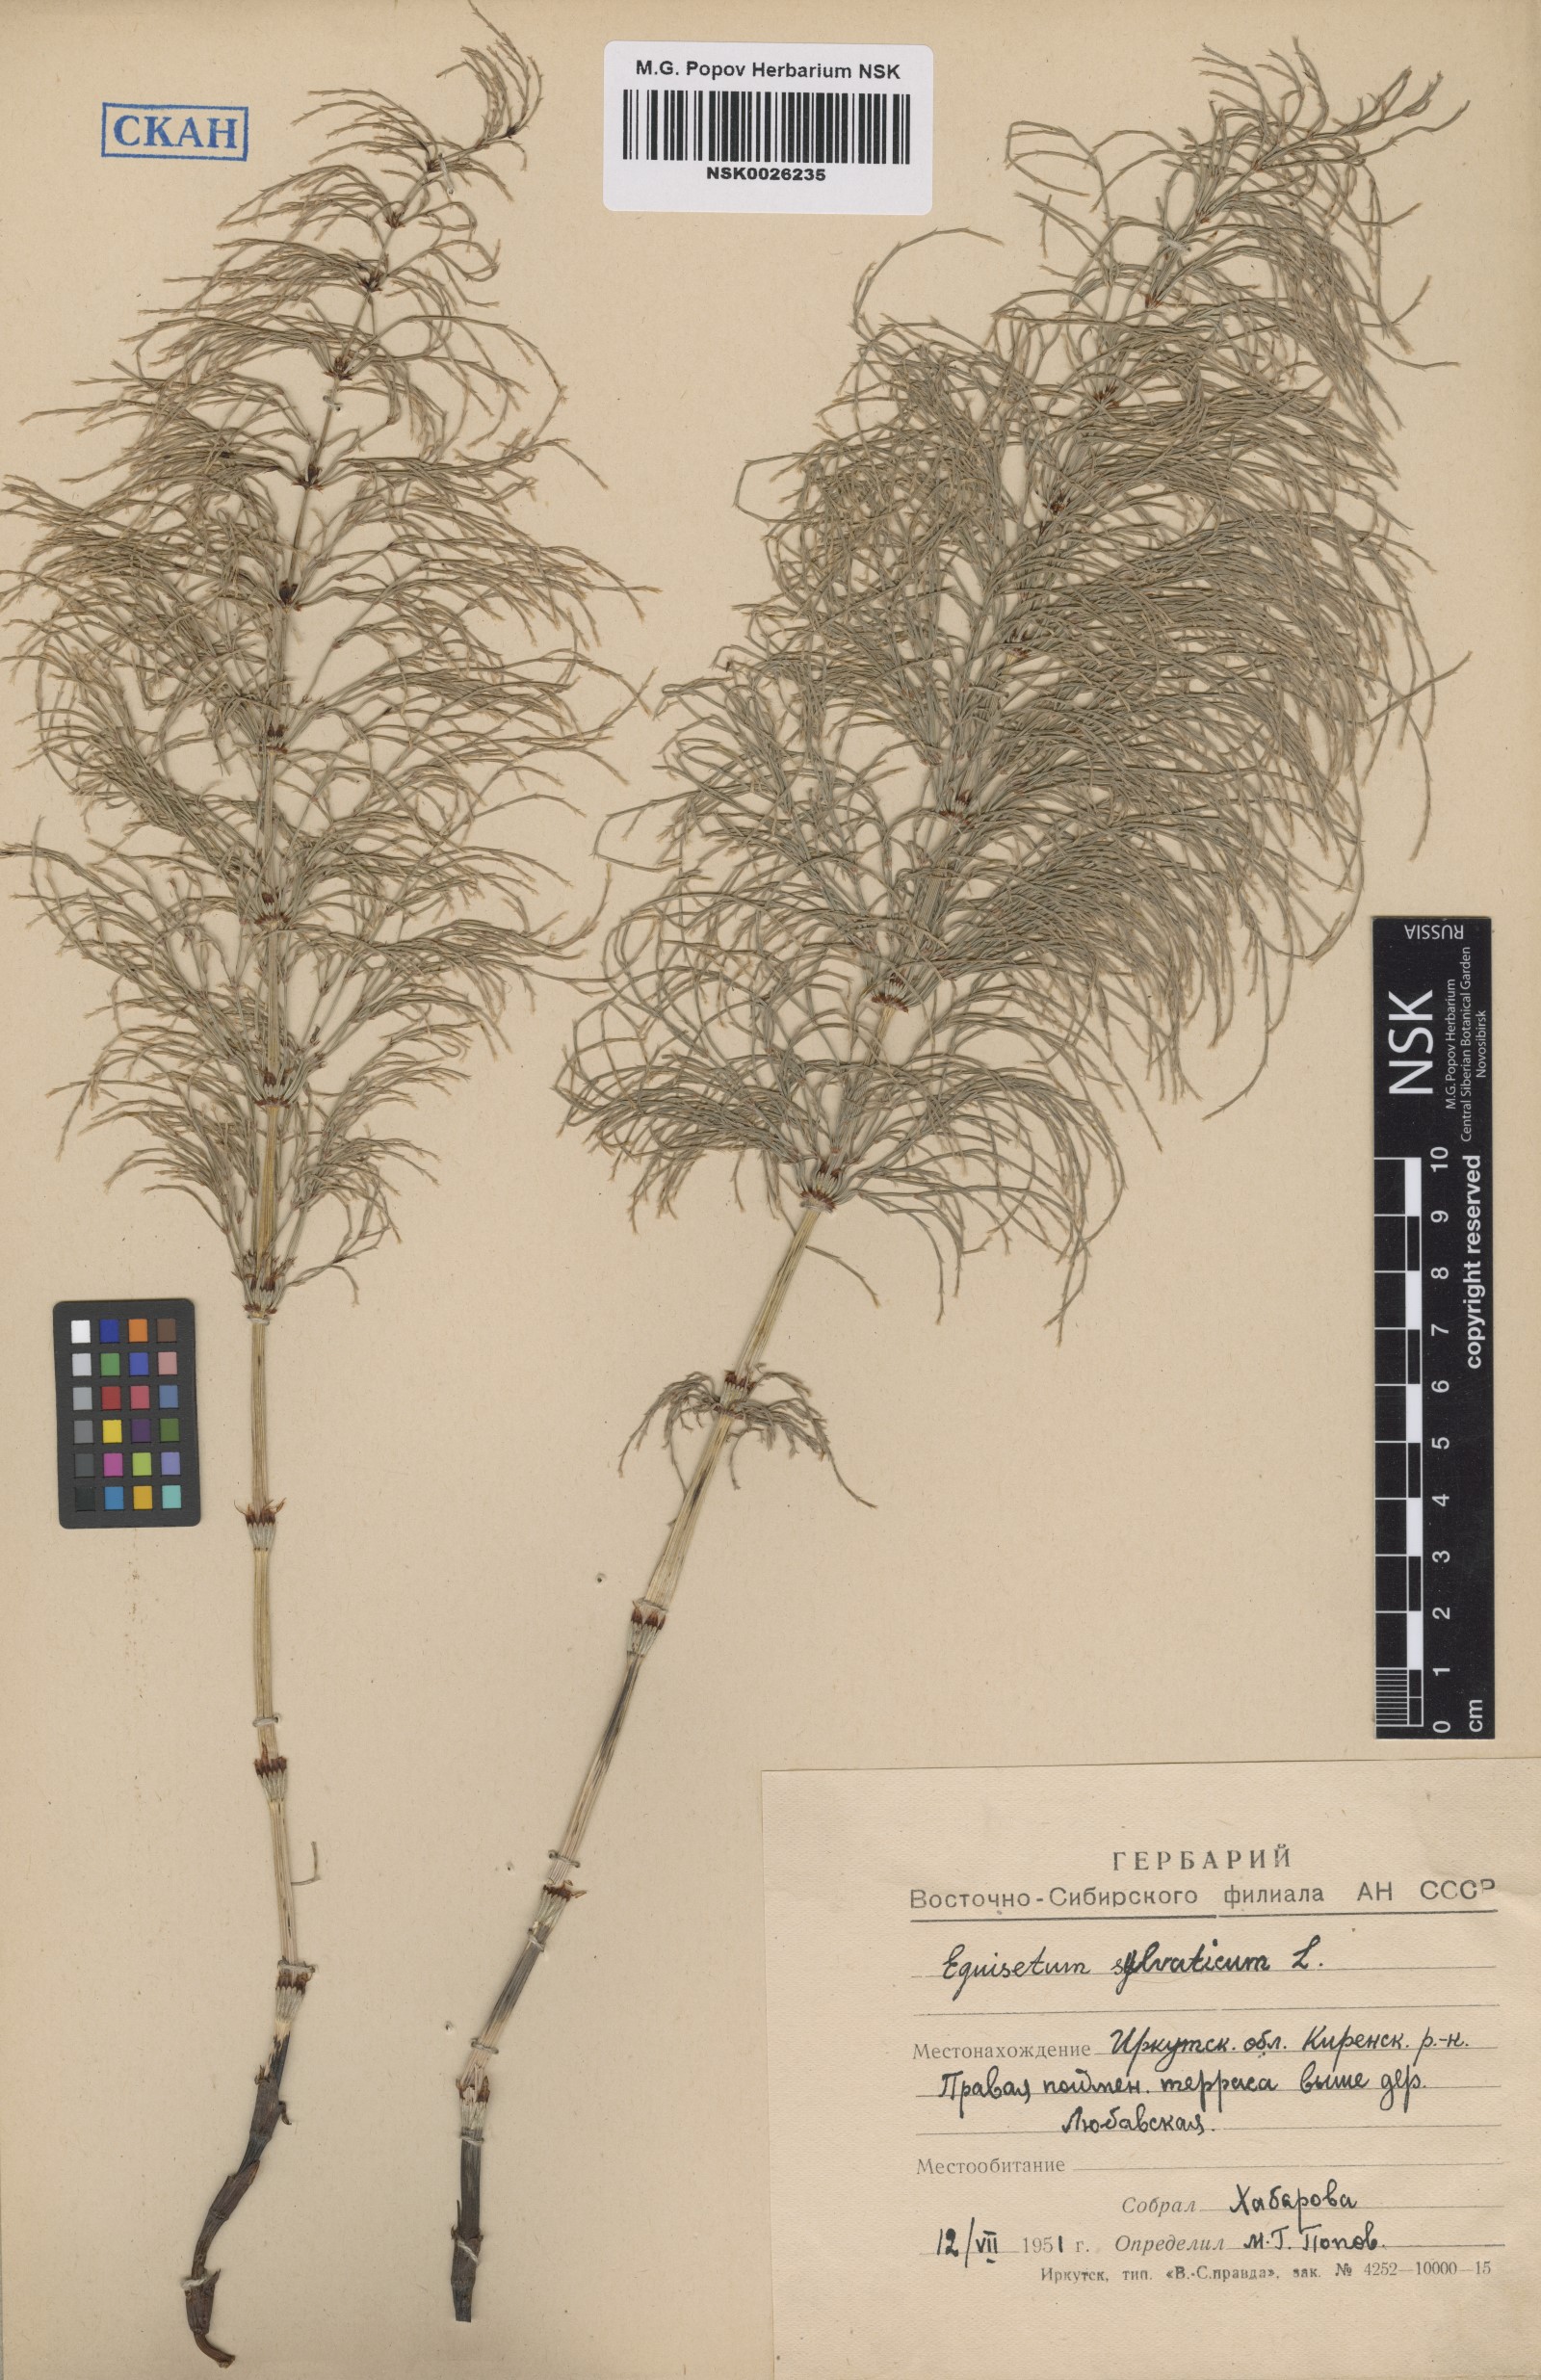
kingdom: Plantae
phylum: Tracheophyta
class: Polypodiopsida
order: Equisetales
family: Equisetaceae
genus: Equisetum
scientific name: Equisetum sylvaticum
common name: Wood horsetail
